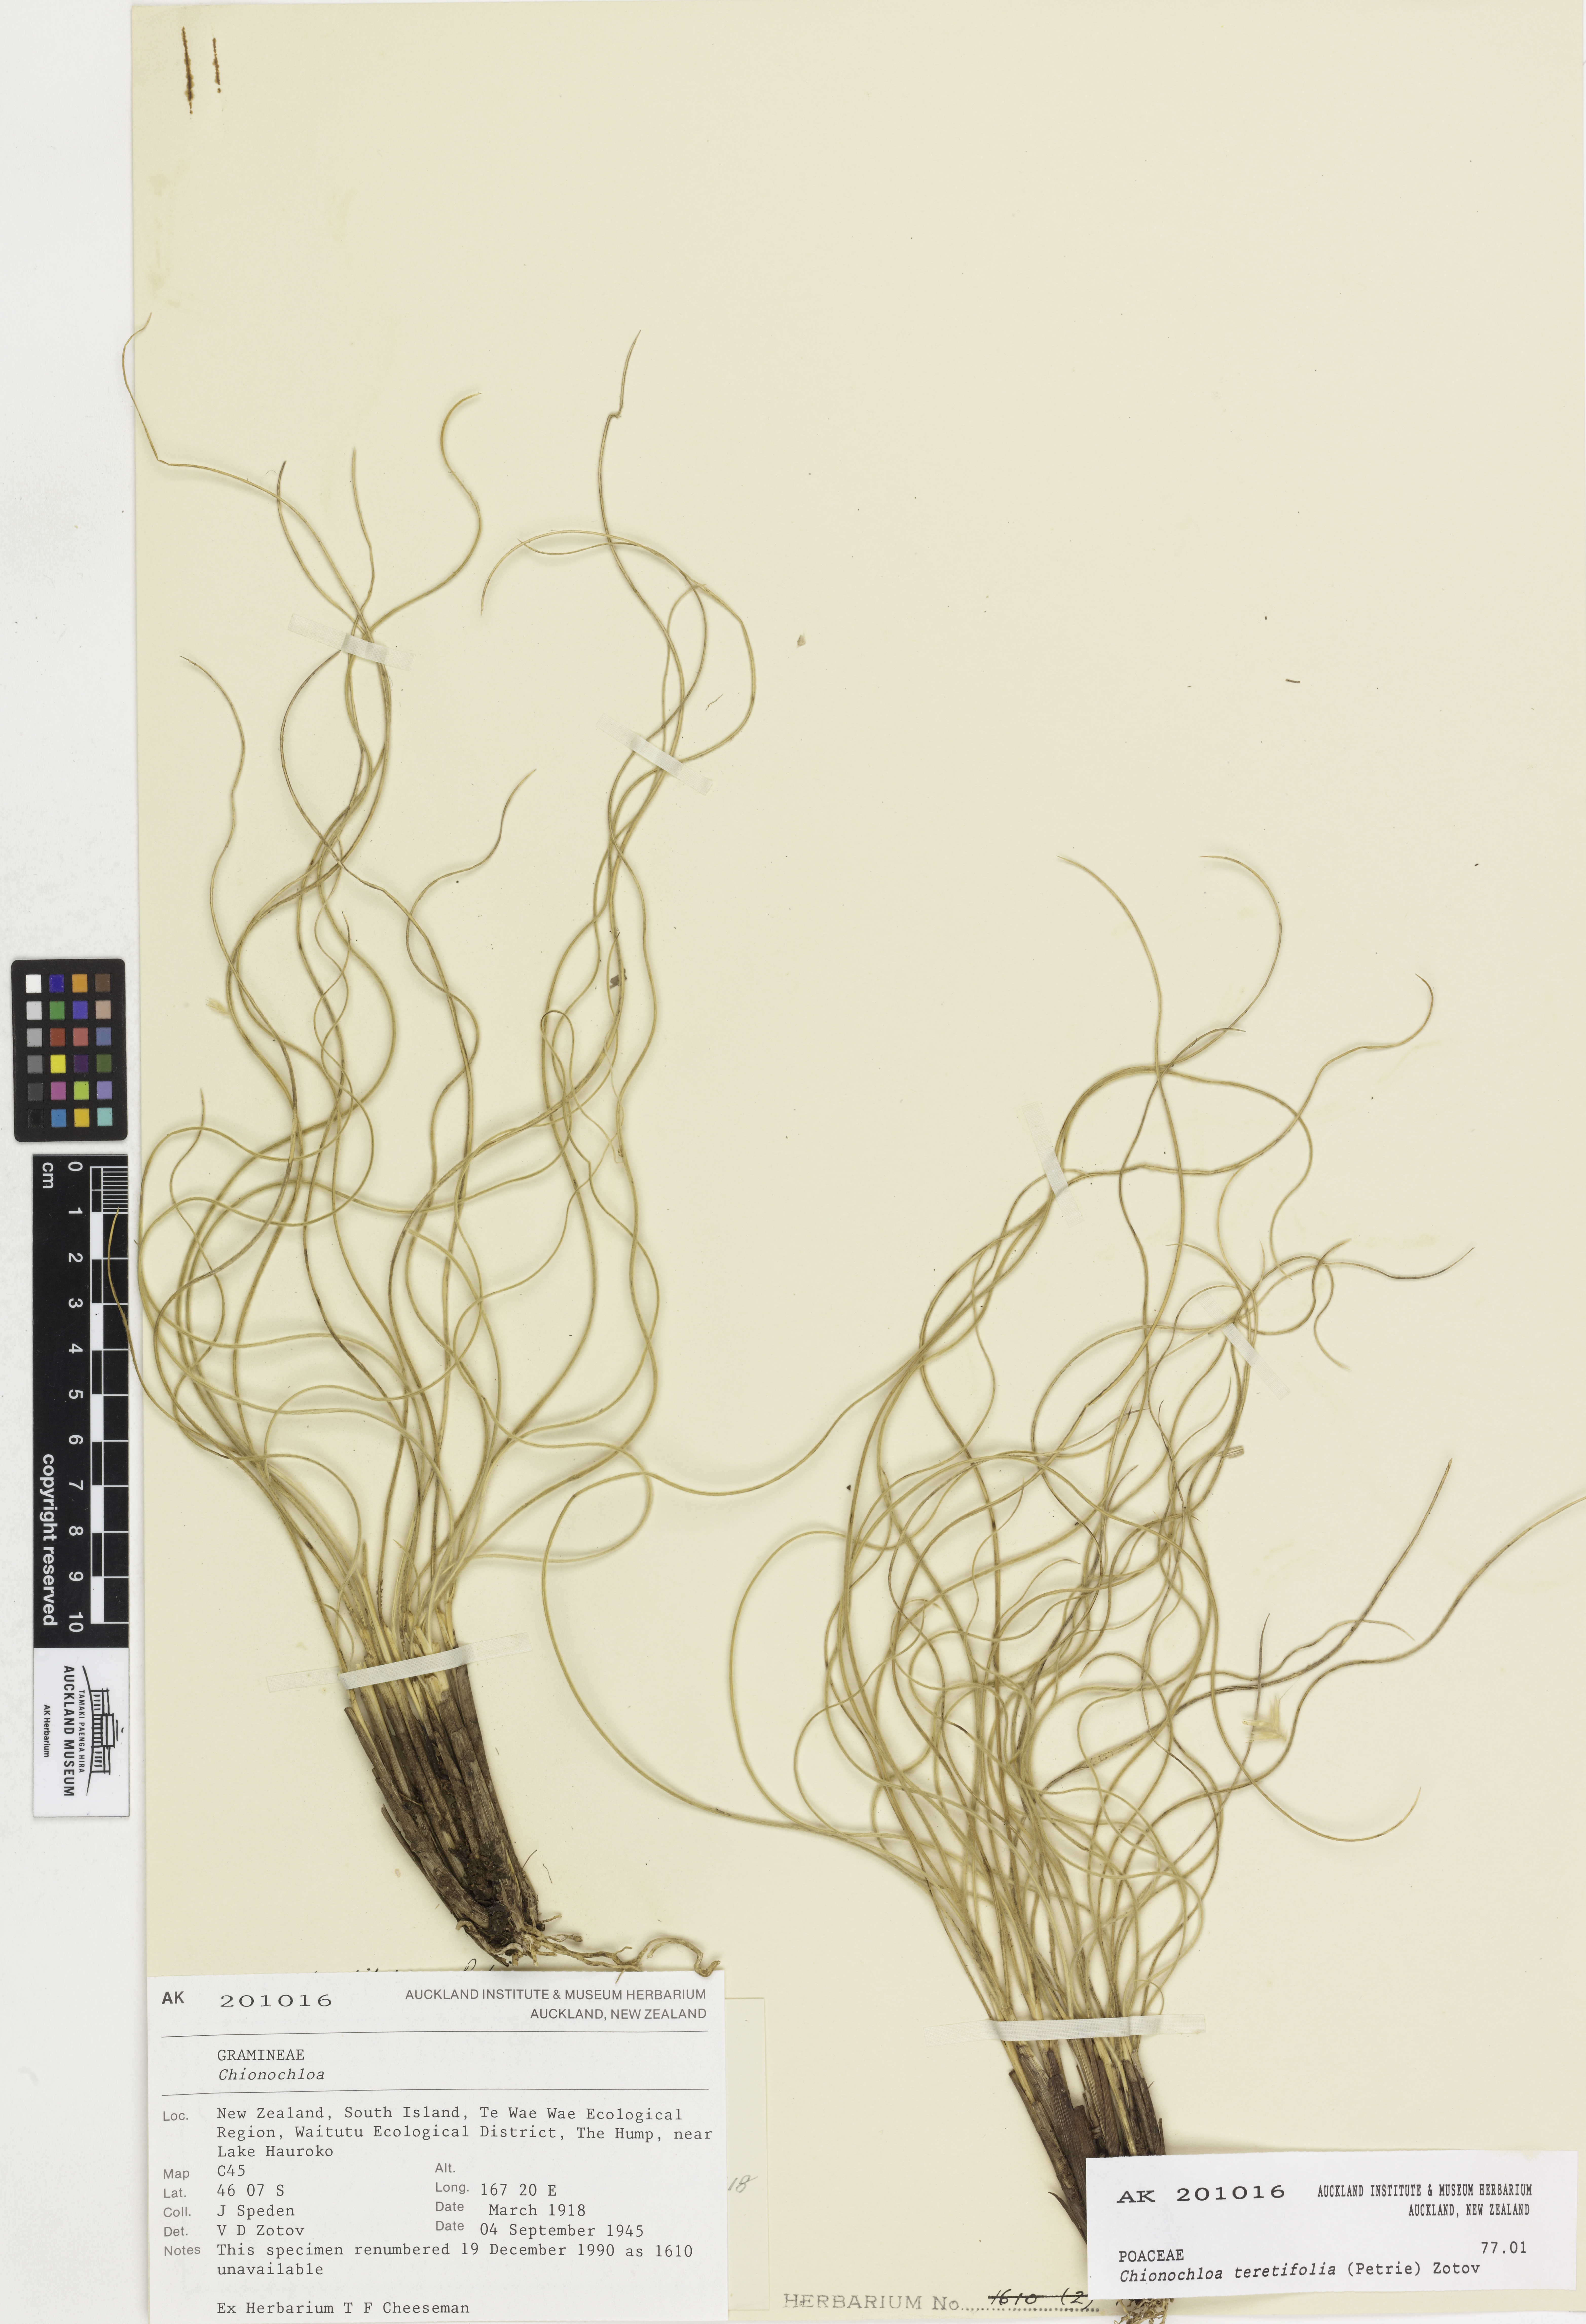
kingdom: Plantae
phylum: Tracheophyta
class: Liliopsida
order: Poales
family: Poaceae
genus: Chionochloa
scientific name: Chionochloa teretifolia
